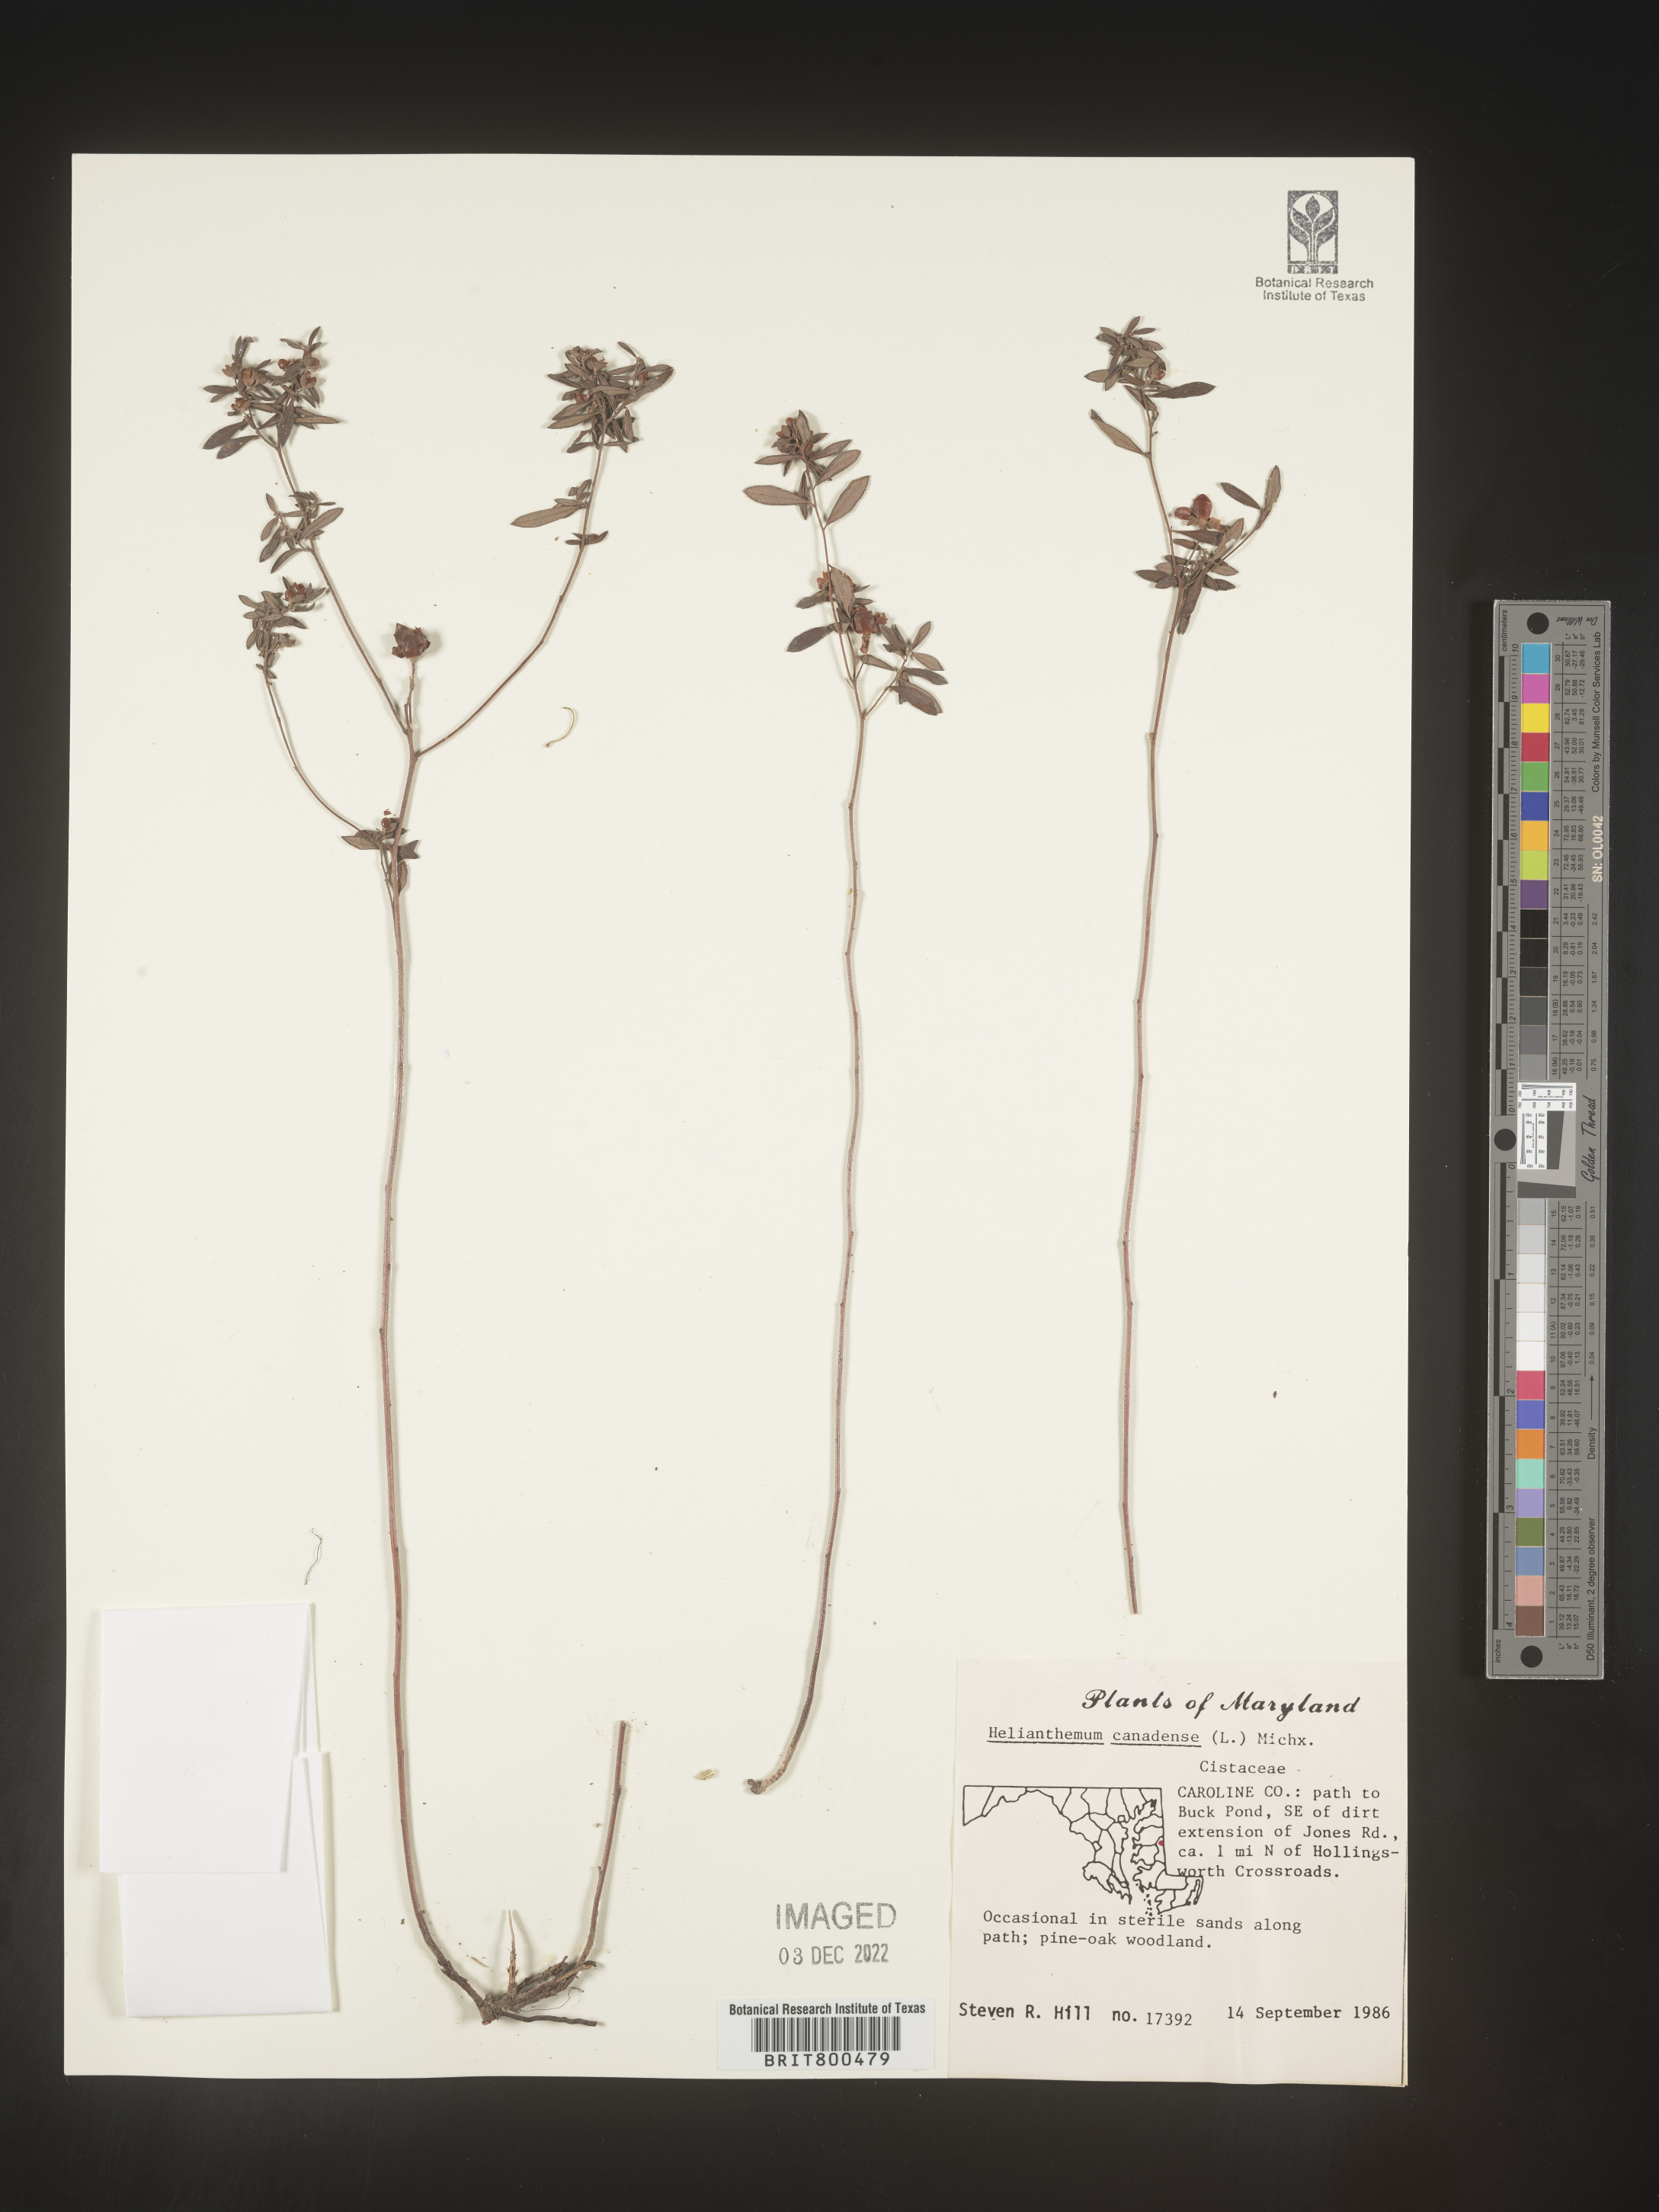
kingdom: Plantae
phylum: Tracheophyta
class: Magnoliopsida
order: Malvales
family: Cistaceae
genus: Crocanthemum
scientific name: Crocanthemum canadense
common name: Canada frostweed
